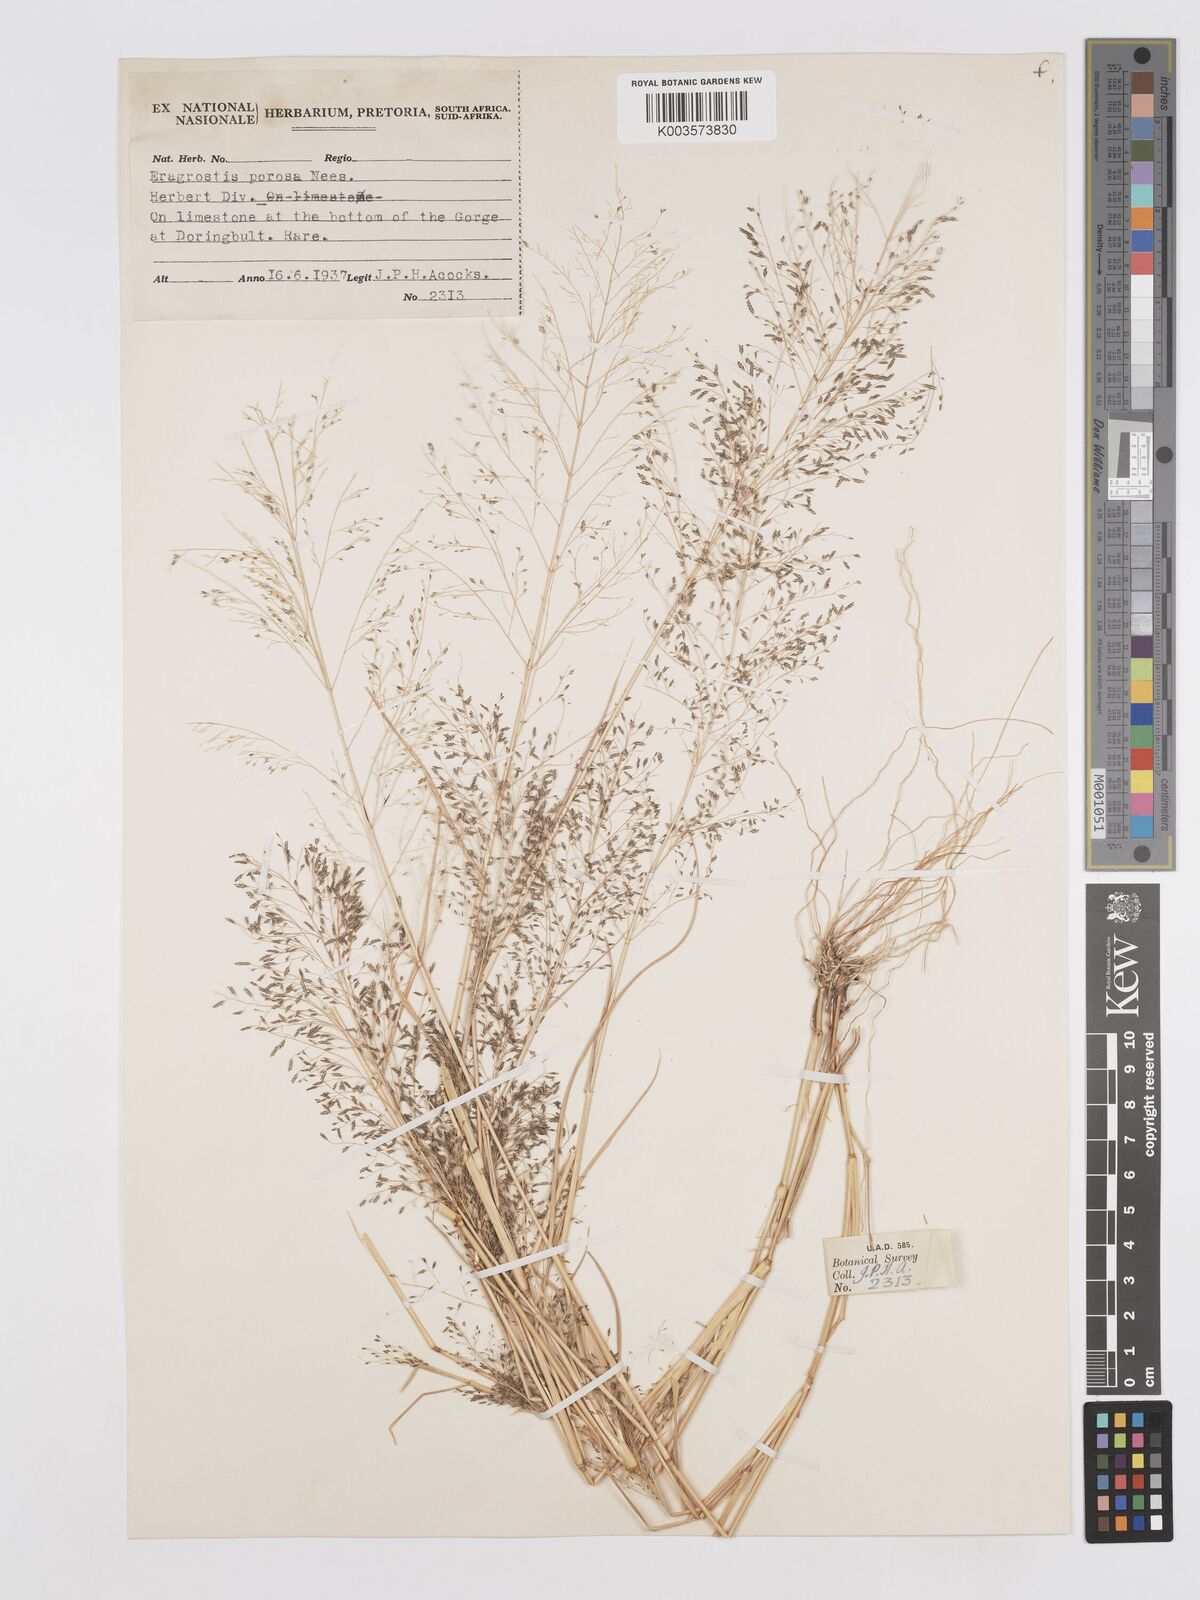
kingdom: Plantae
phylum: Tracheophyta
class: Liliopsida
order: Poales
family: Poaceae
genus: Eragrostis
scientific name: Eragrostis porosa
